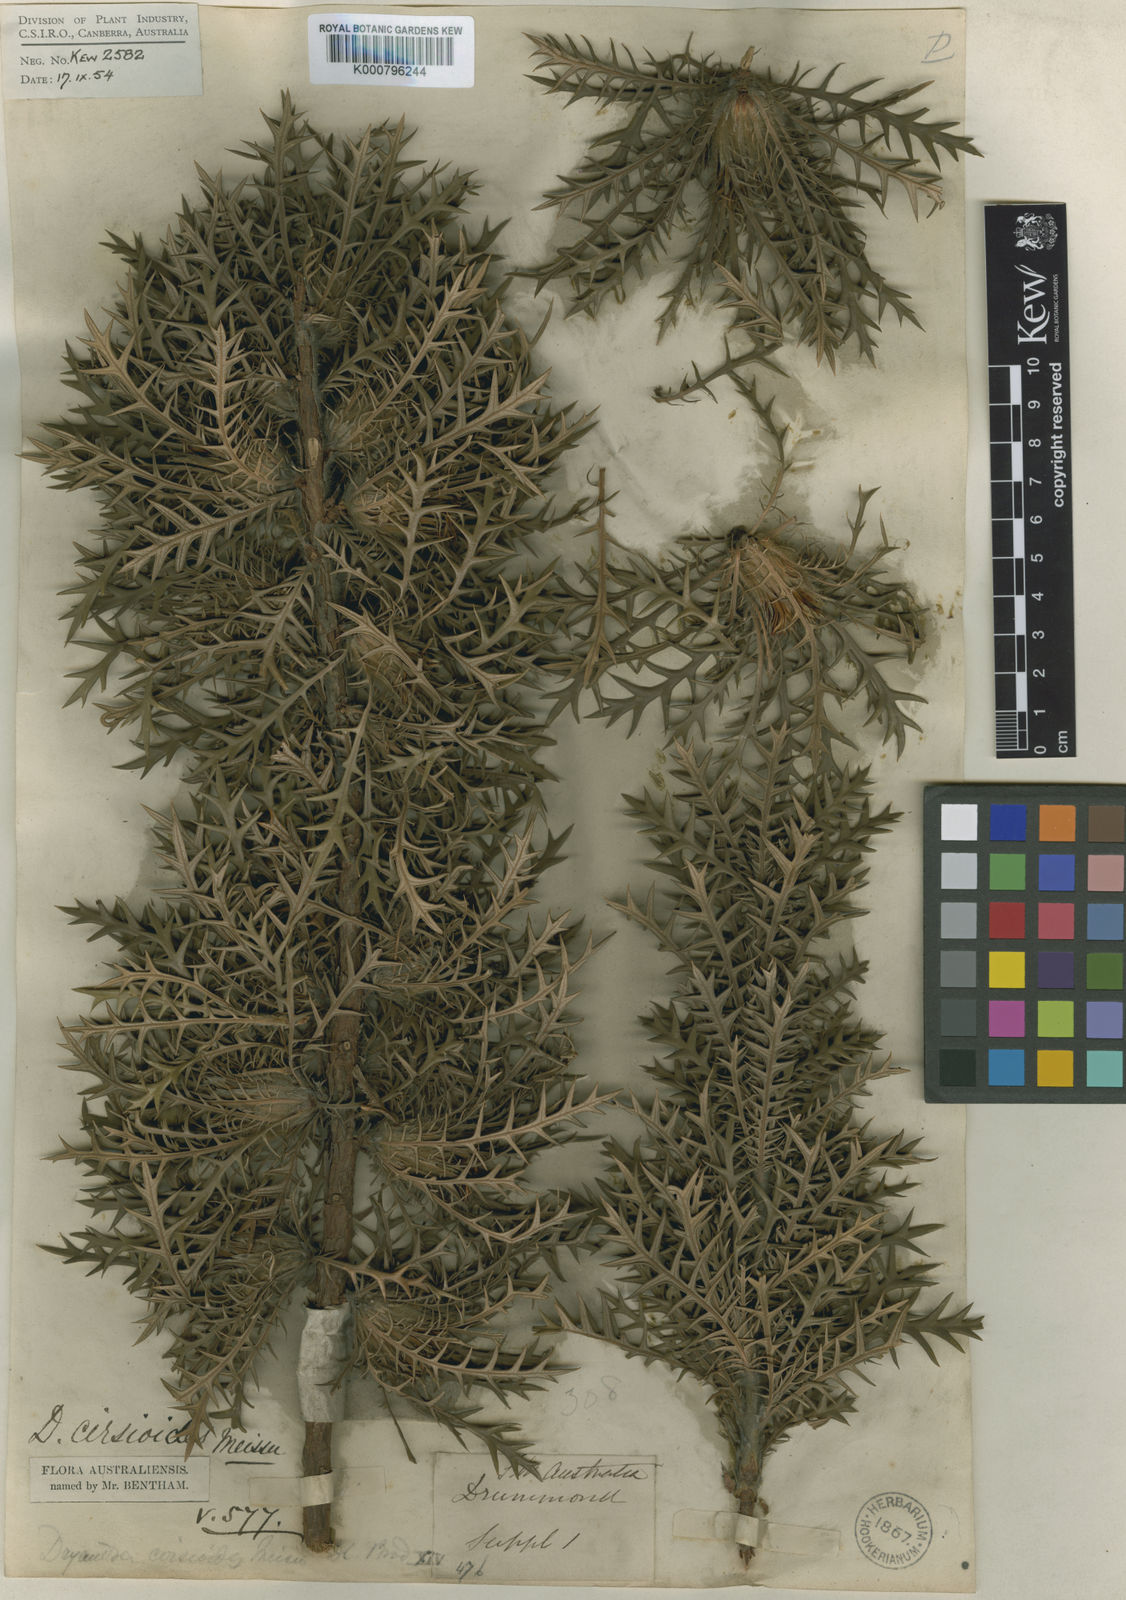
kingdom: Plantae
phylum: Tracheophyta
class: Magnoliopsida
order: Proteales
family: Proteaceae
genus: Banksia
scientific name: Banksia cirsioides
